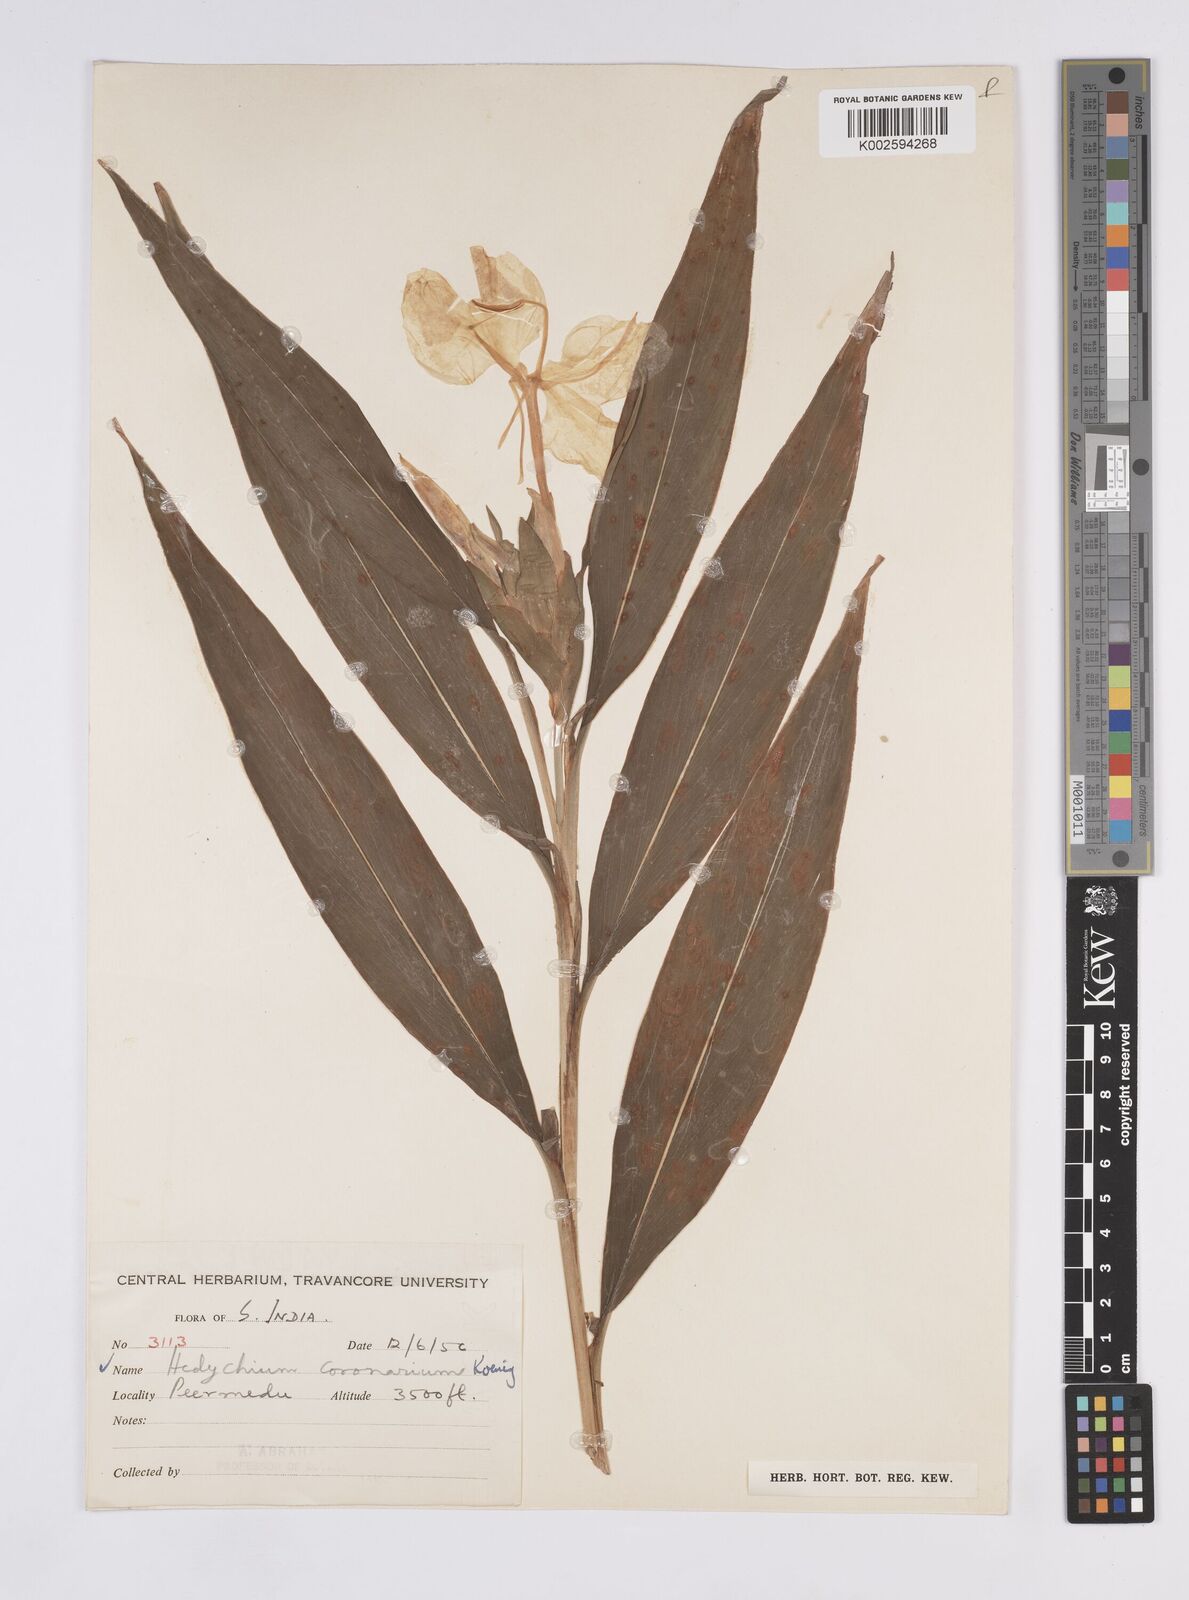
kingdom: Plantae
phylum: Tracheophyta
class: Liliopsida
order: Zingiberales
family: Zingiberaceae
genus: Hedychium
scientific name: Hedychium coronarium
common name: White garland-lily
